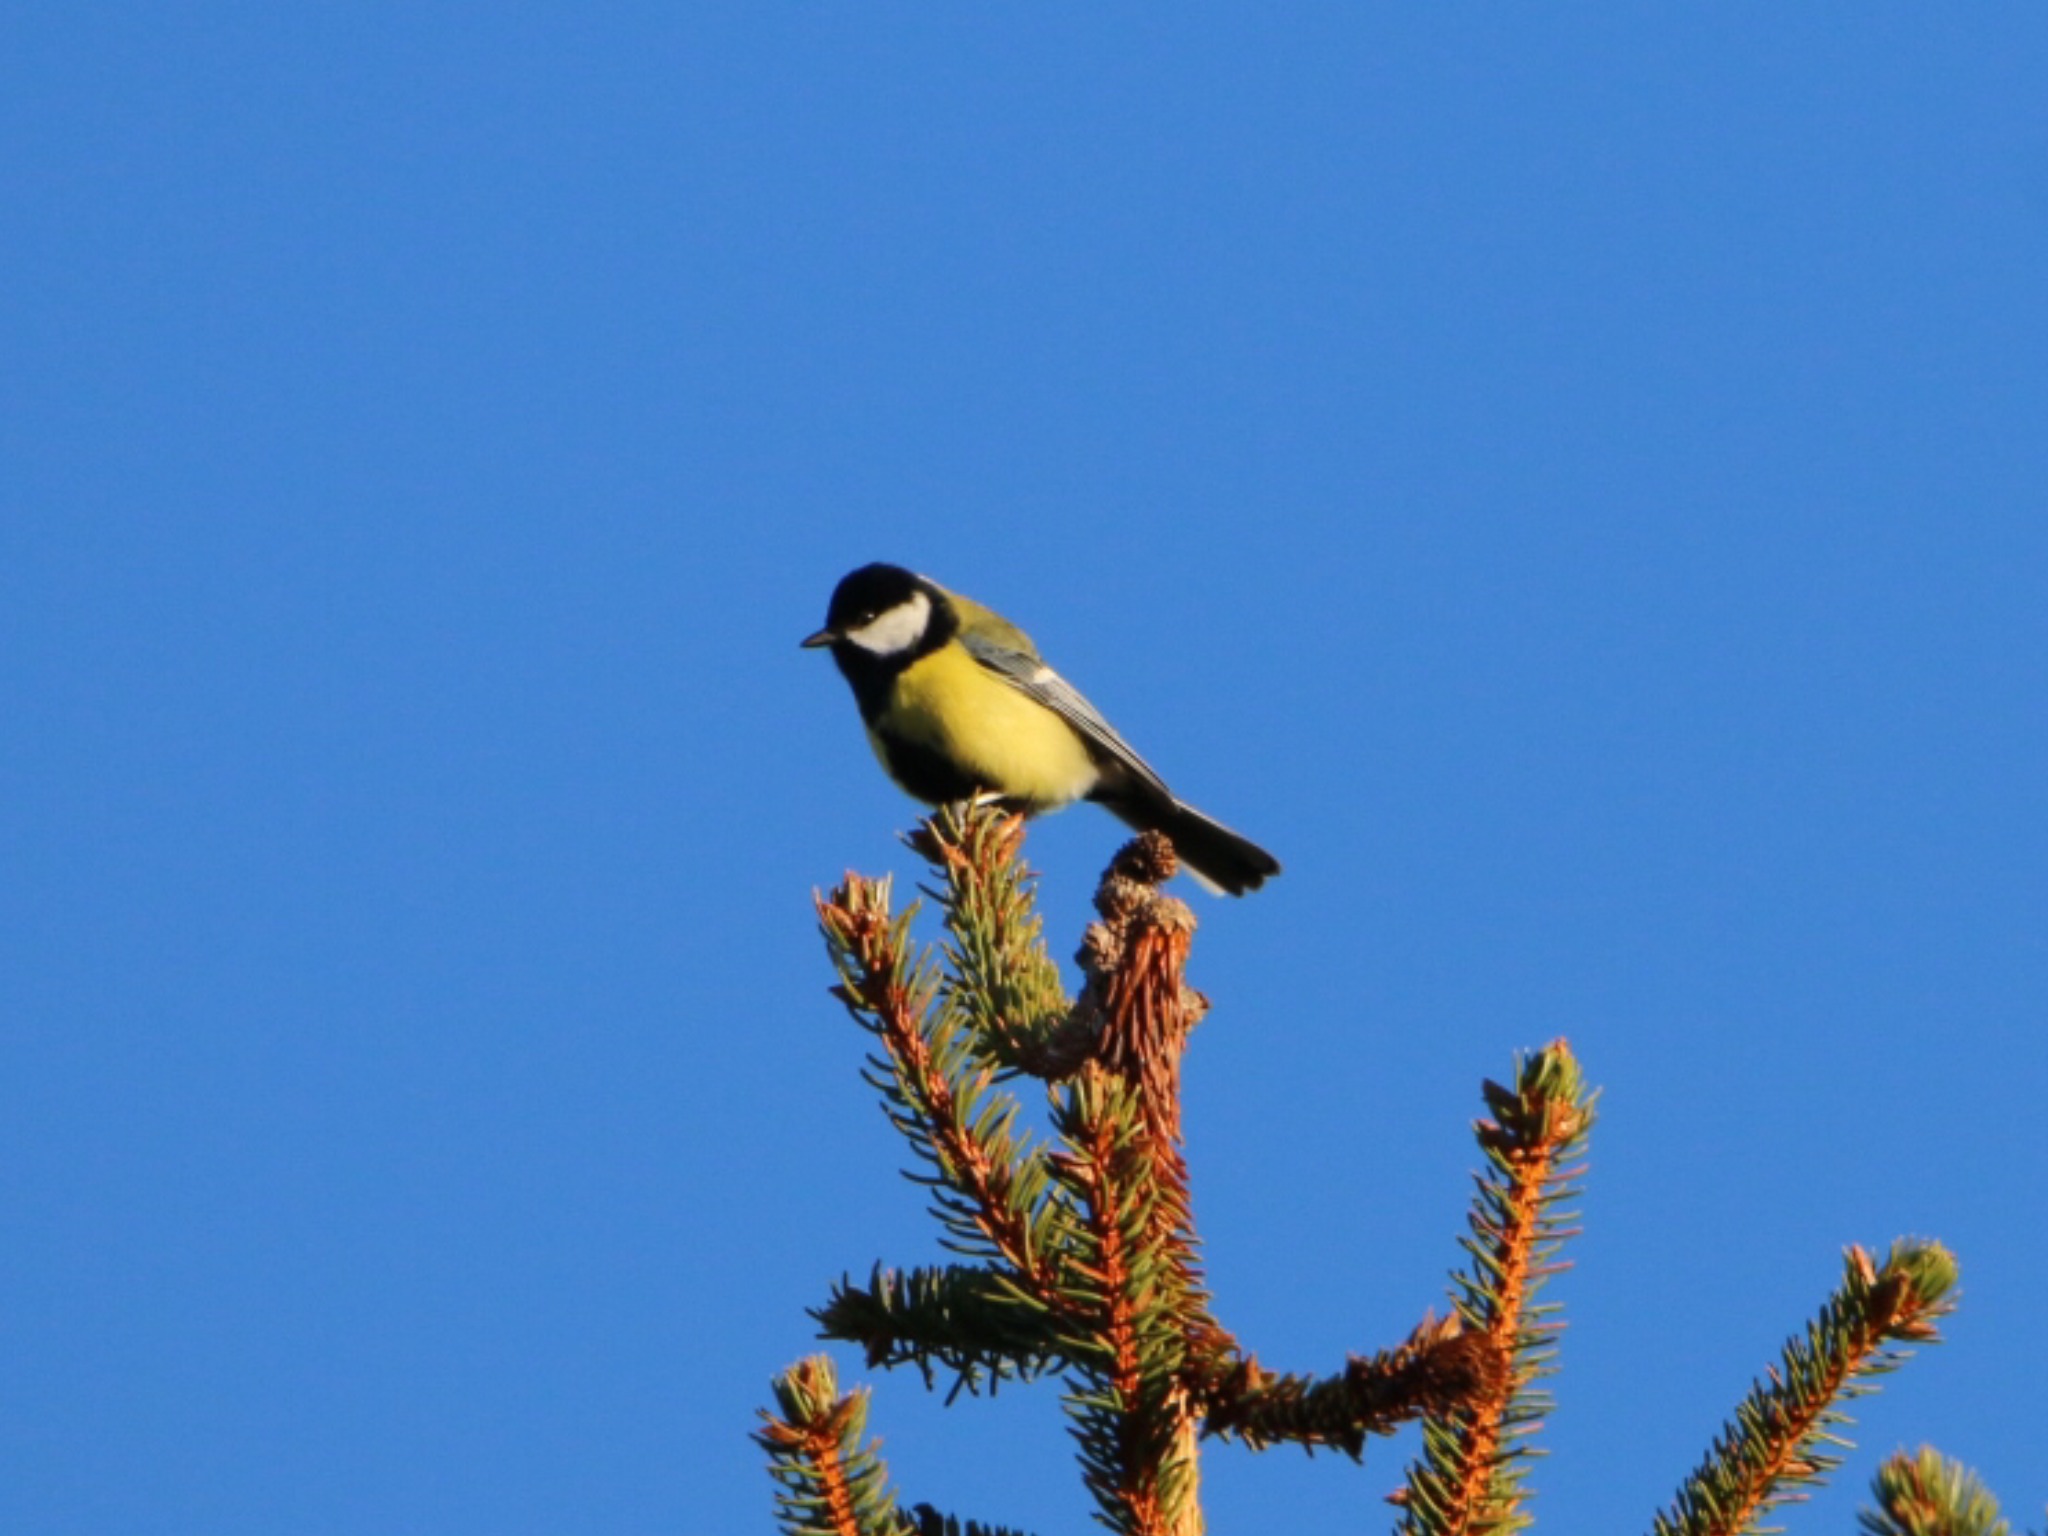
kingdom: Animalia
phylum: Chordata
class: Aves
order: Passeriformes
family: Paridae
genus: Parus
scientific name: Parus major
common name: Musvit
